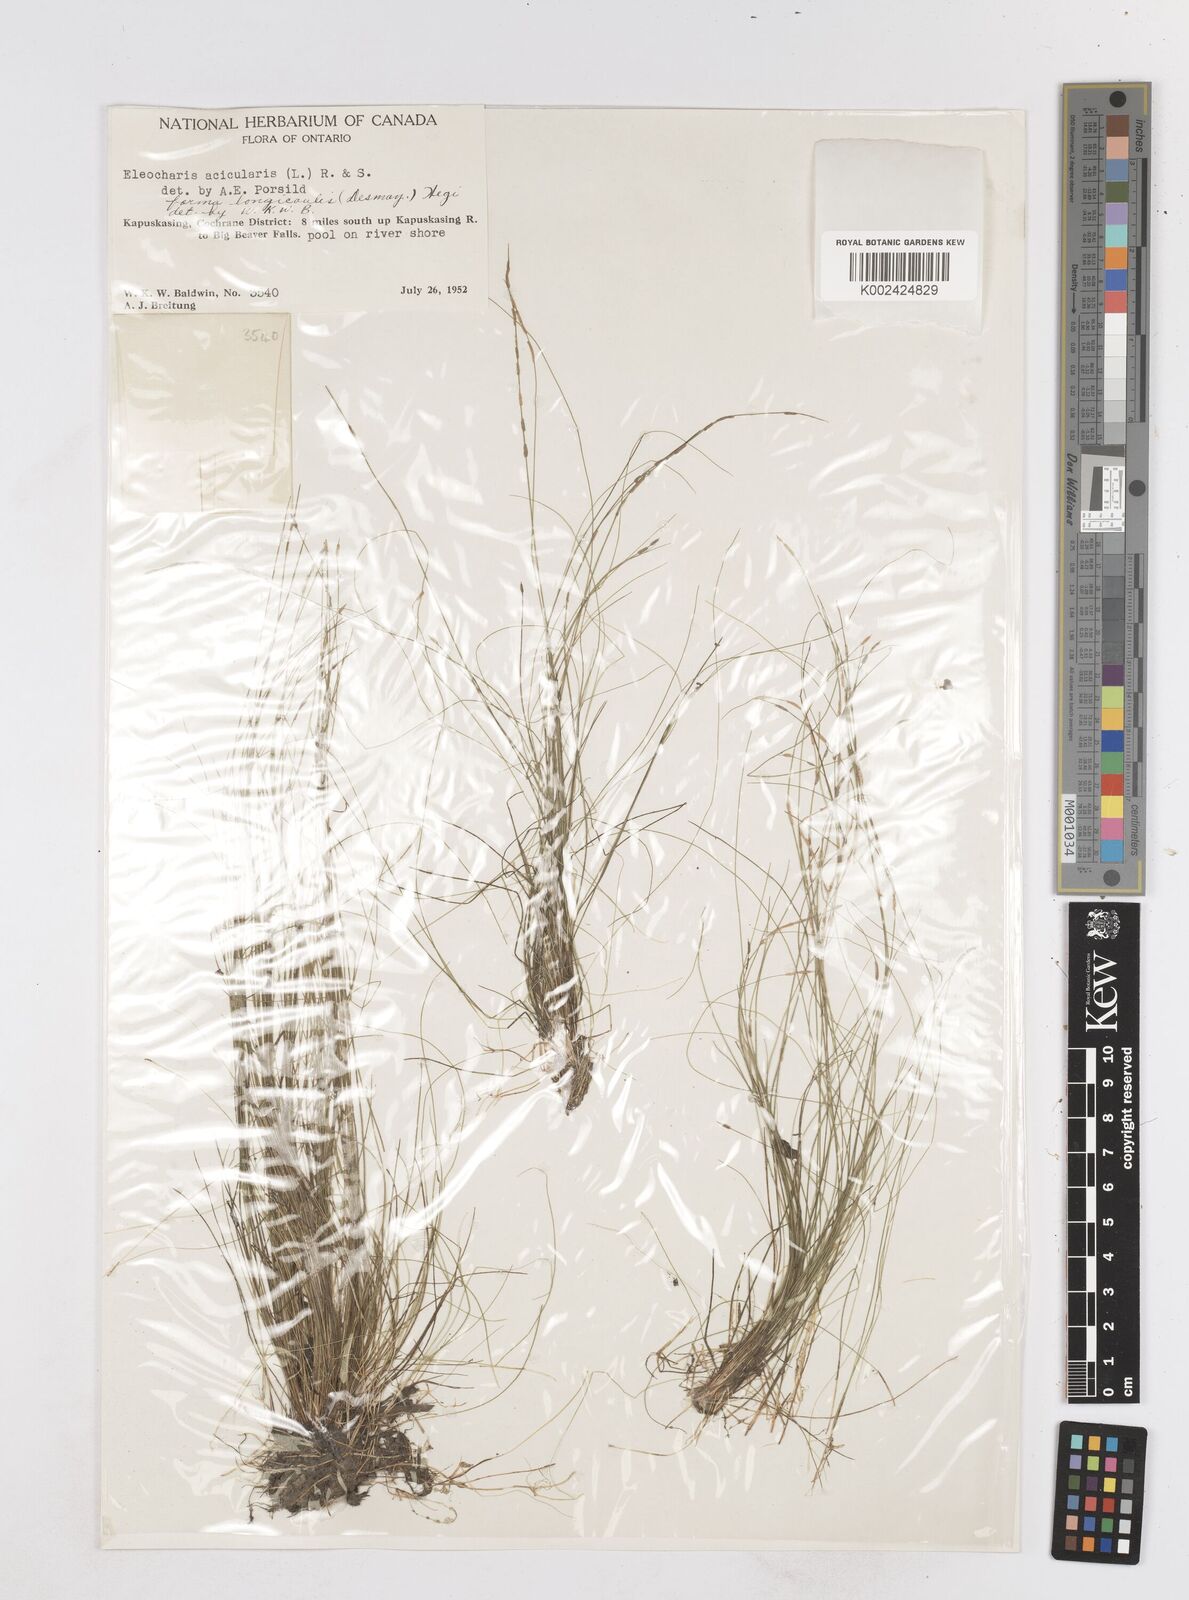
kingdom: Plantae
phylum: Tracheophyta
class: Liliopsida
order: Poales
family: Cyperaceae
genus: Eleocharis
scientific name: Eleocharis acicularis
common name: Needle spike-rush
